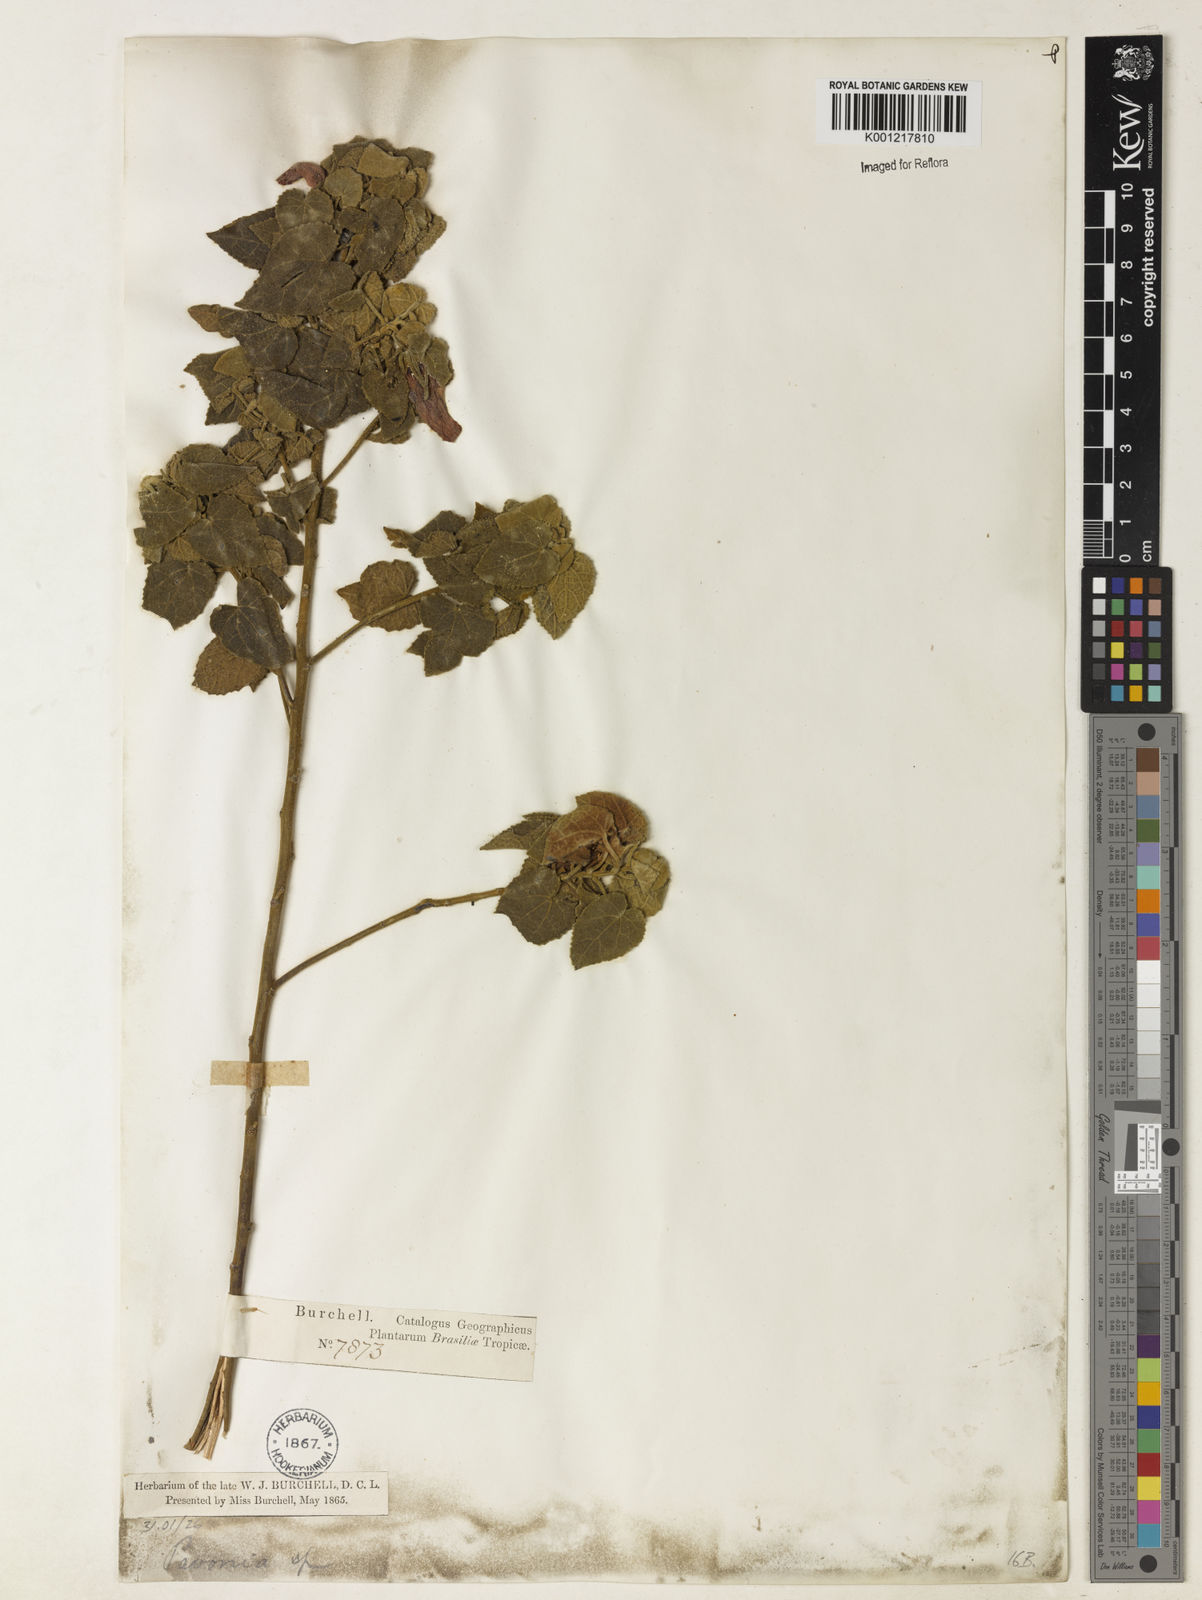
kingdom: Plantae
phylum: Tracheophyta
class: Magnoliopsida
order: Malvales
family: Malvaceae
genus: Pavonia
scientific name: Pavonia
